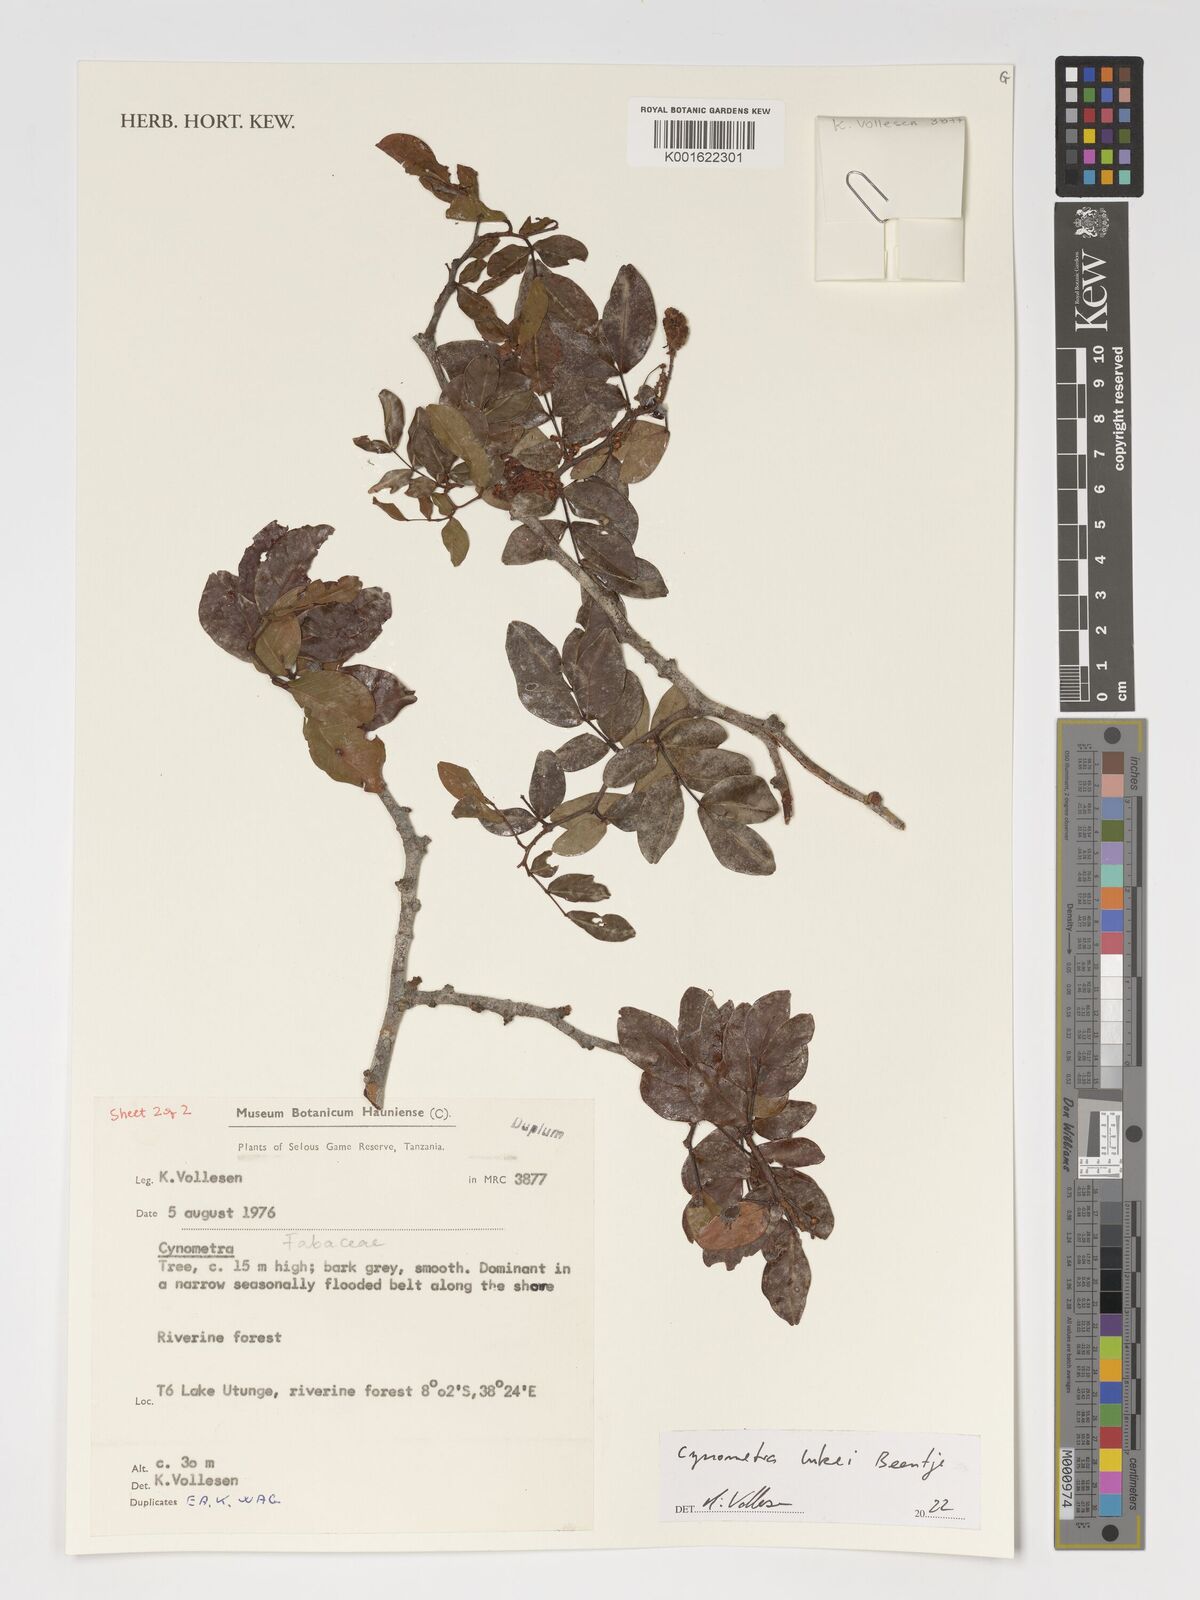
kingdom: Plantae
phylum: Tracheophyta
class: Magnoliopsida
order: Fabales
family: Fabaceae
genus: Cynometra
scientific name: Cynometra lukei
